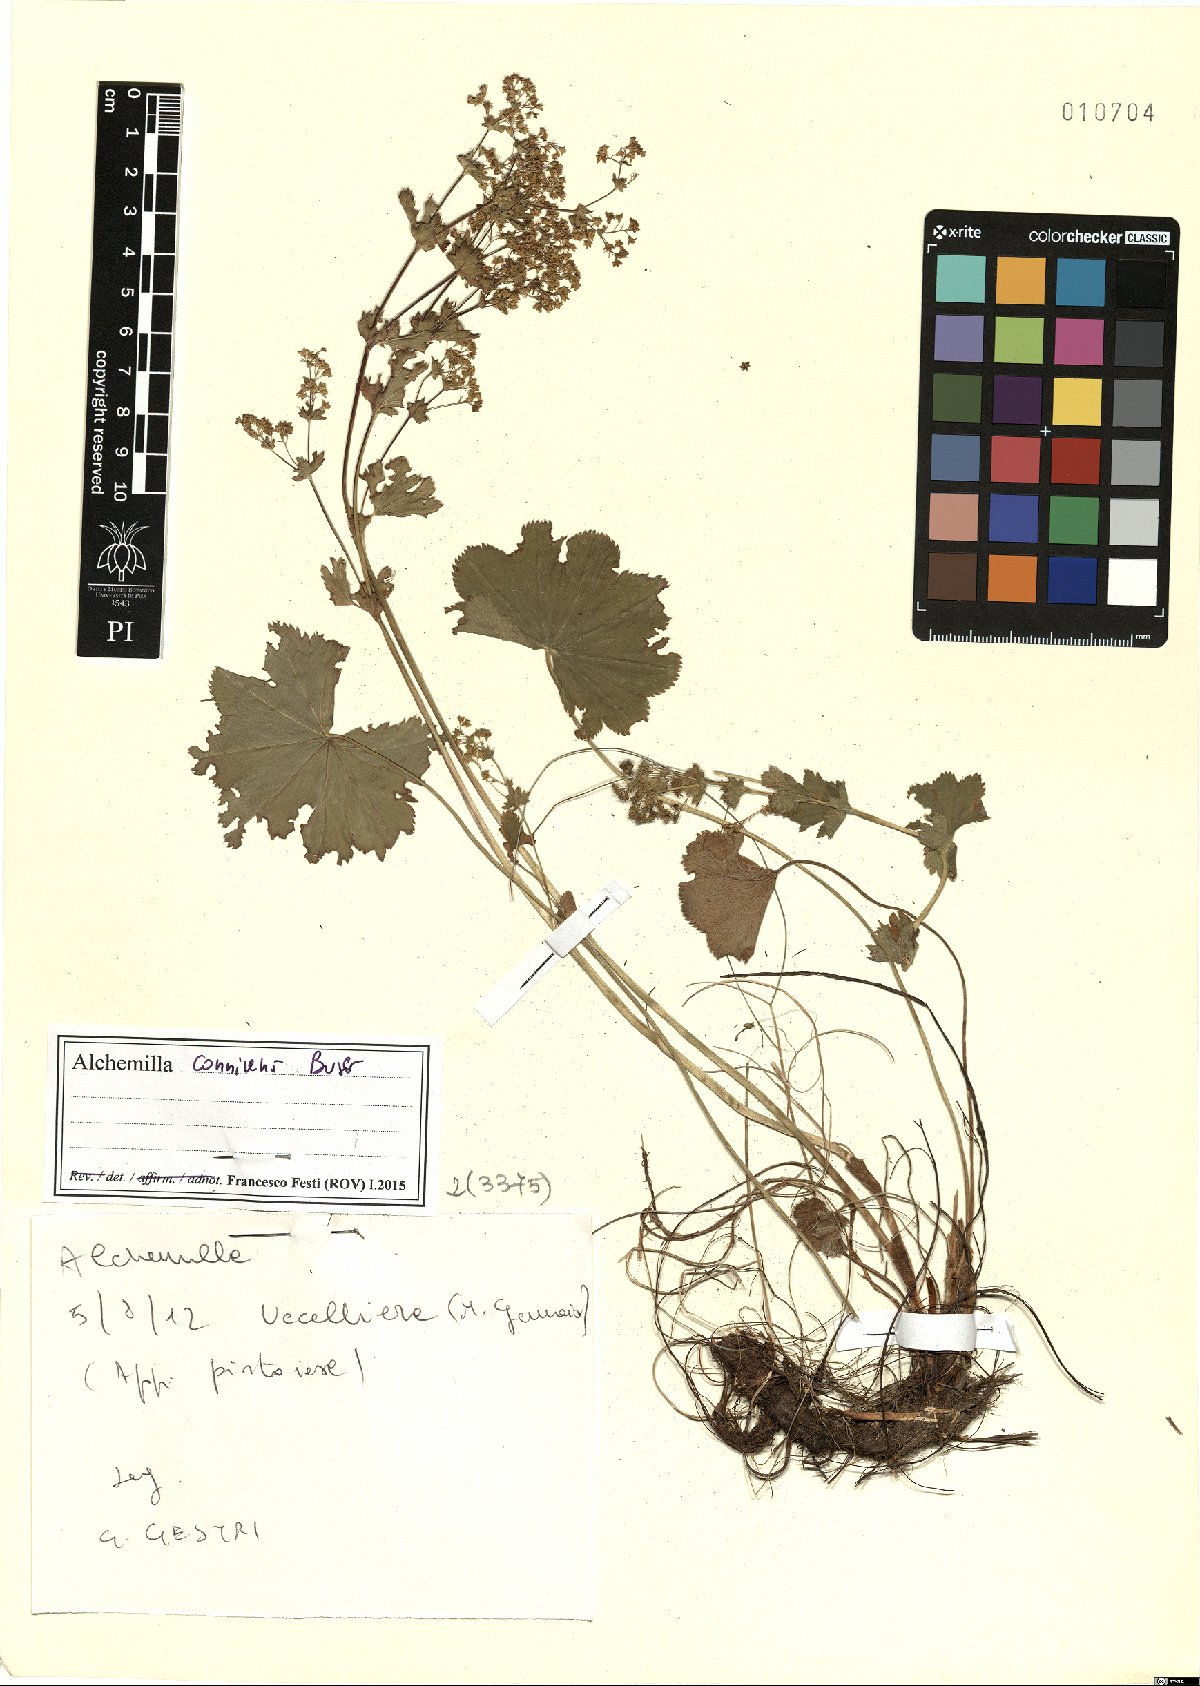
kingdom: Plantae
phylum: Tracheophyta
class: Magnoliopsida
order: Rosales
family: Rosaceae
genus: Alchemilla
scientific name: Alchemilla connivens
